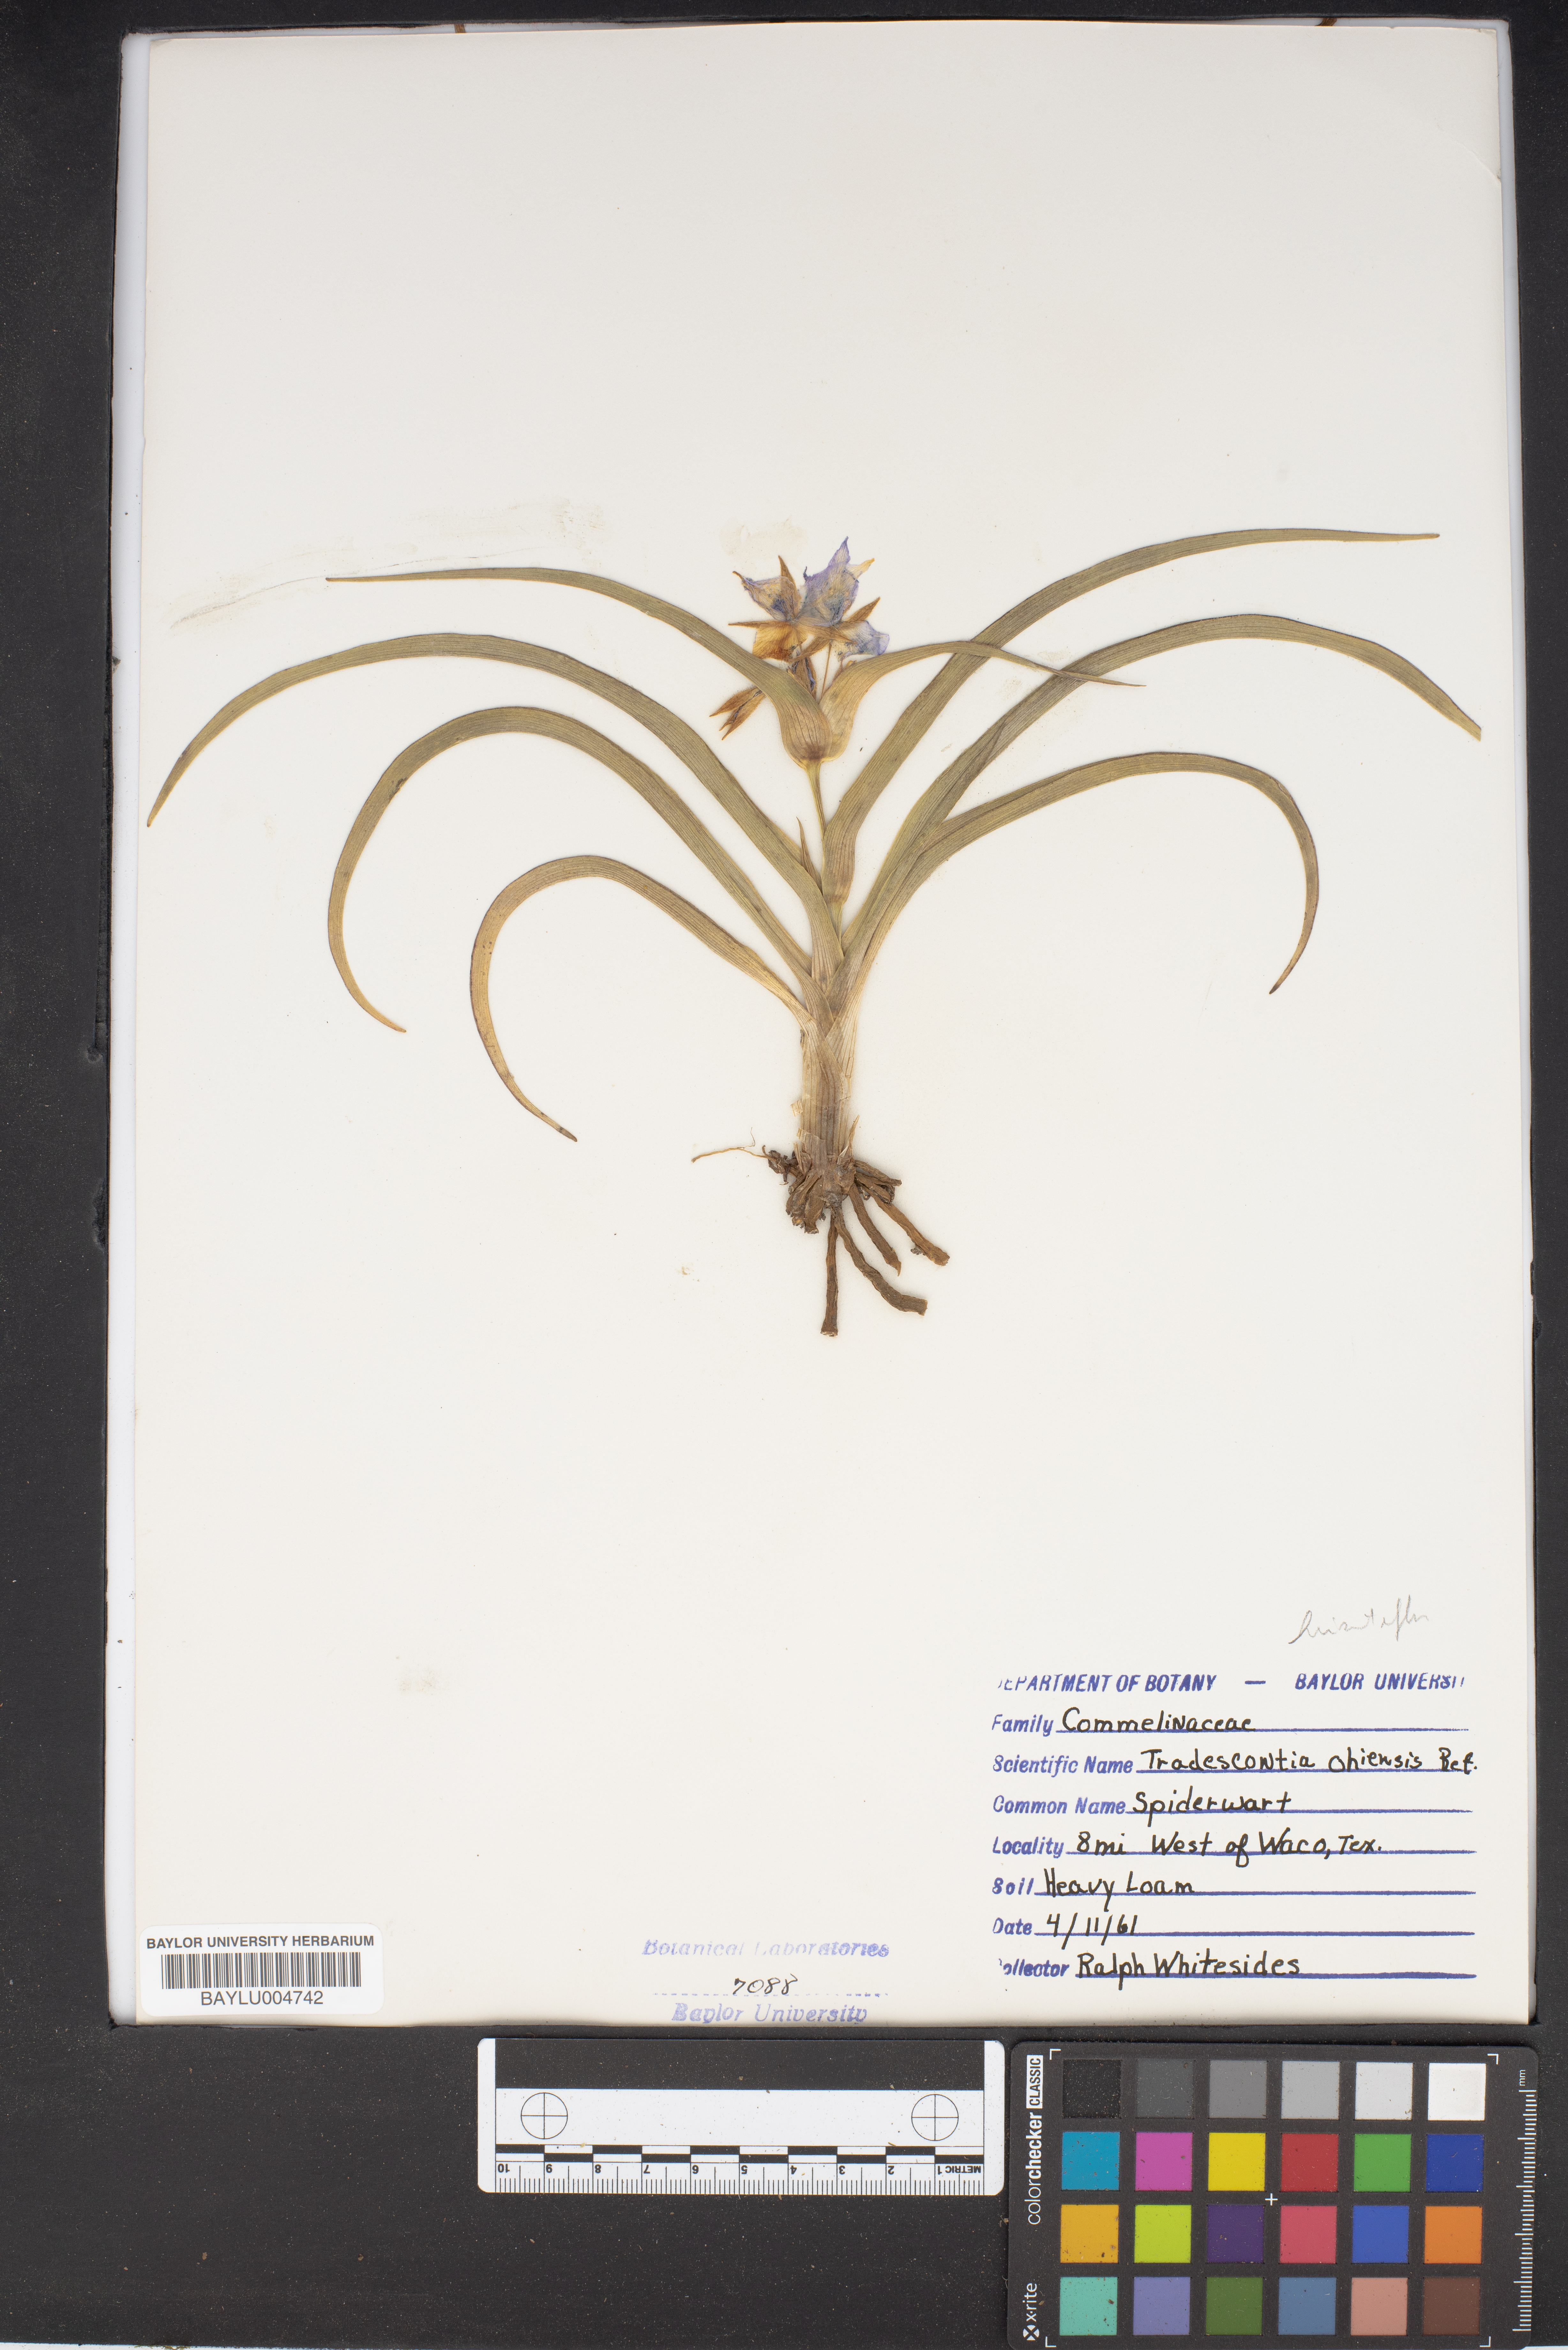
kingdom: Plantae
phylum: Tracheophyta
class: Liliopsida
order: Commelinales
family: Commelinaceae
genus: Tradescantia
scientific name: Tradescantia ohiensis
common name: Ohio spiderwort
